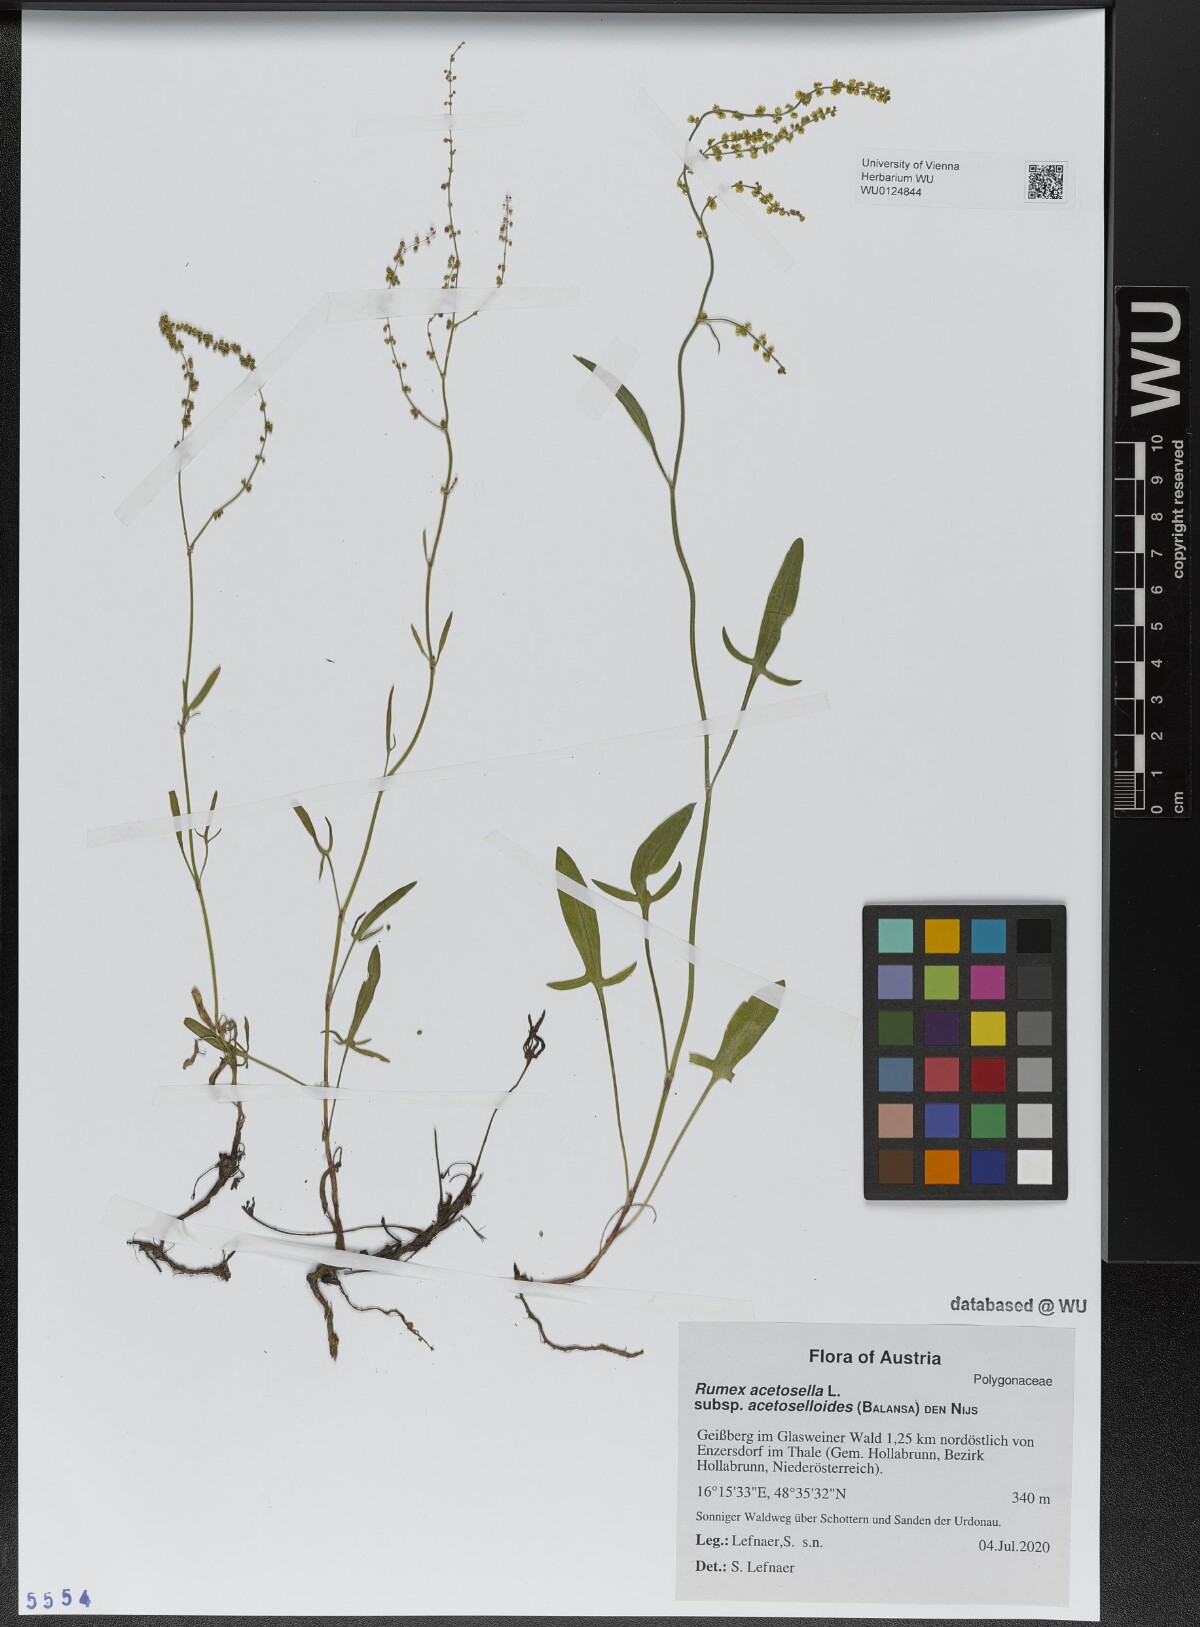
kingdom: Plantae
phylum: Tracheophyta
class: Magnoliopsida
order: Caryophyllales
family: Polygonaceae
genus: Rumex
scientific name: Rumex acetosella
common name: Common sheep sorrel
